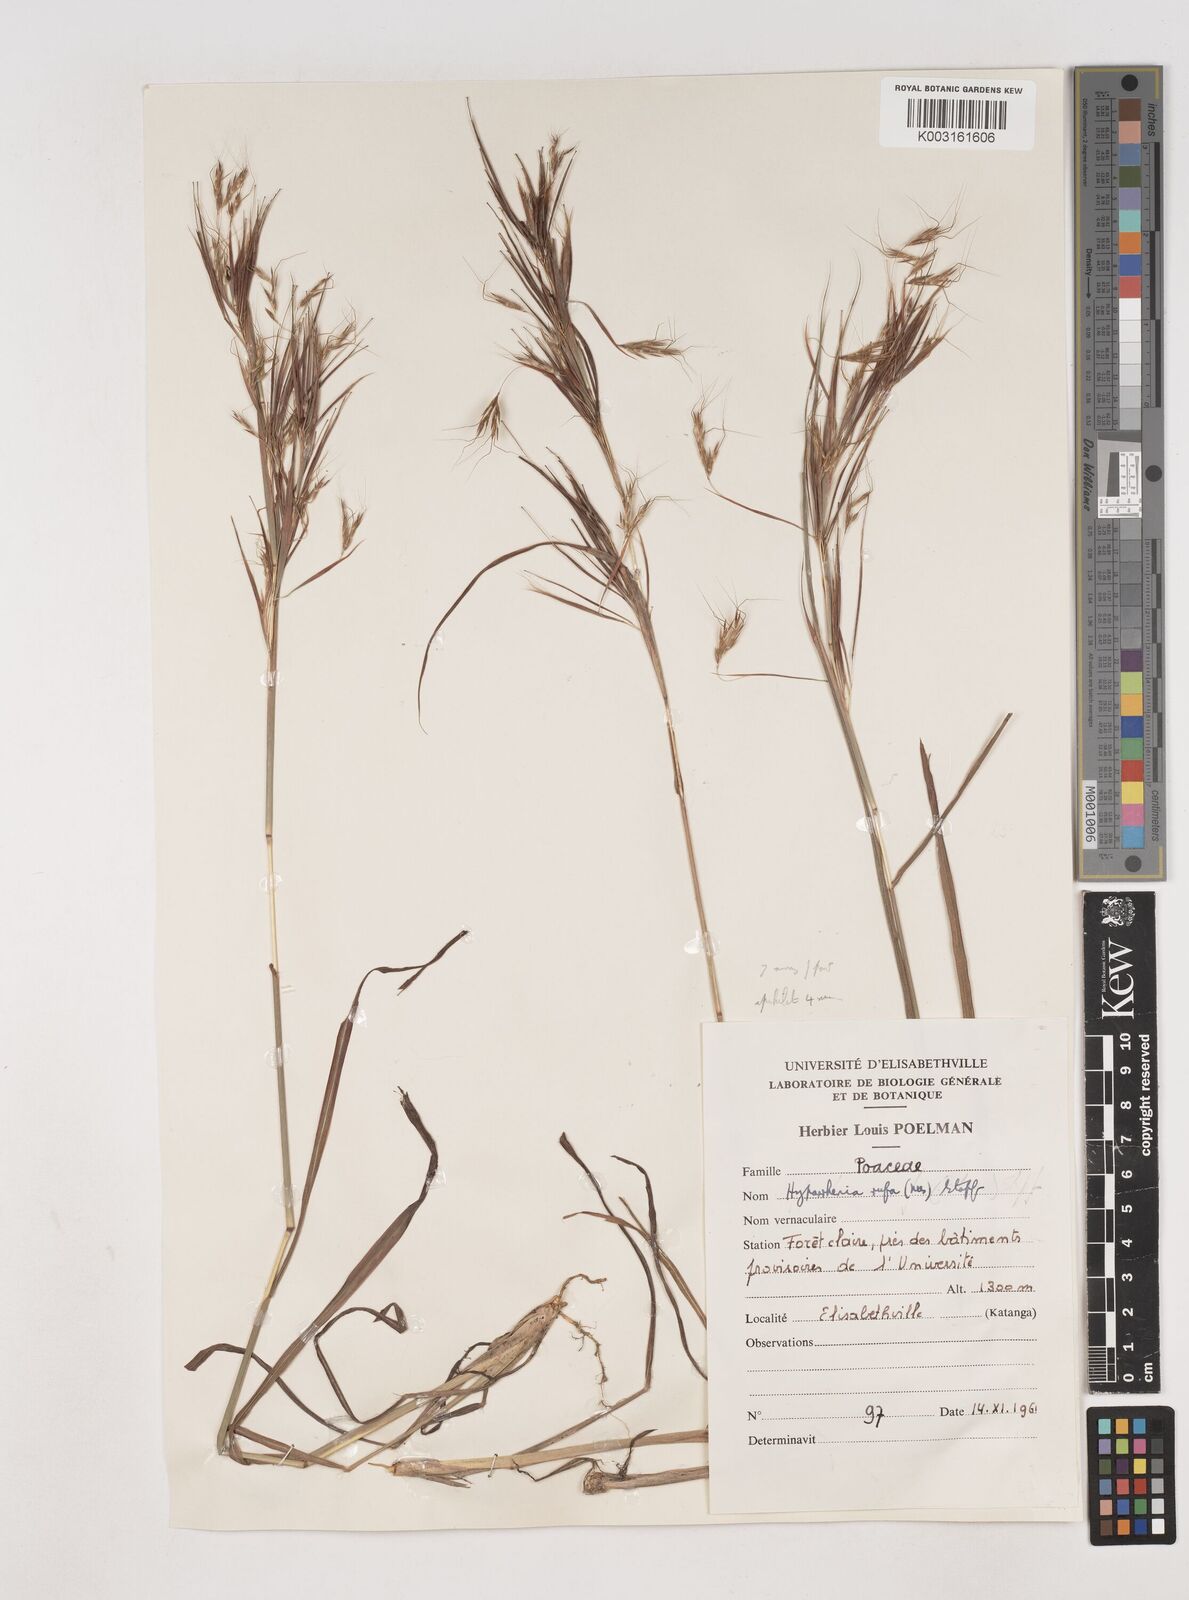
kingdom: Plantae
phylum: Tracheophyta
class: Liliopsida
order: Poales
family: Poaceae
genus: Hyparrhenia
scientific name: Hyparrhenia rufa
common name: Jaraguagrass
